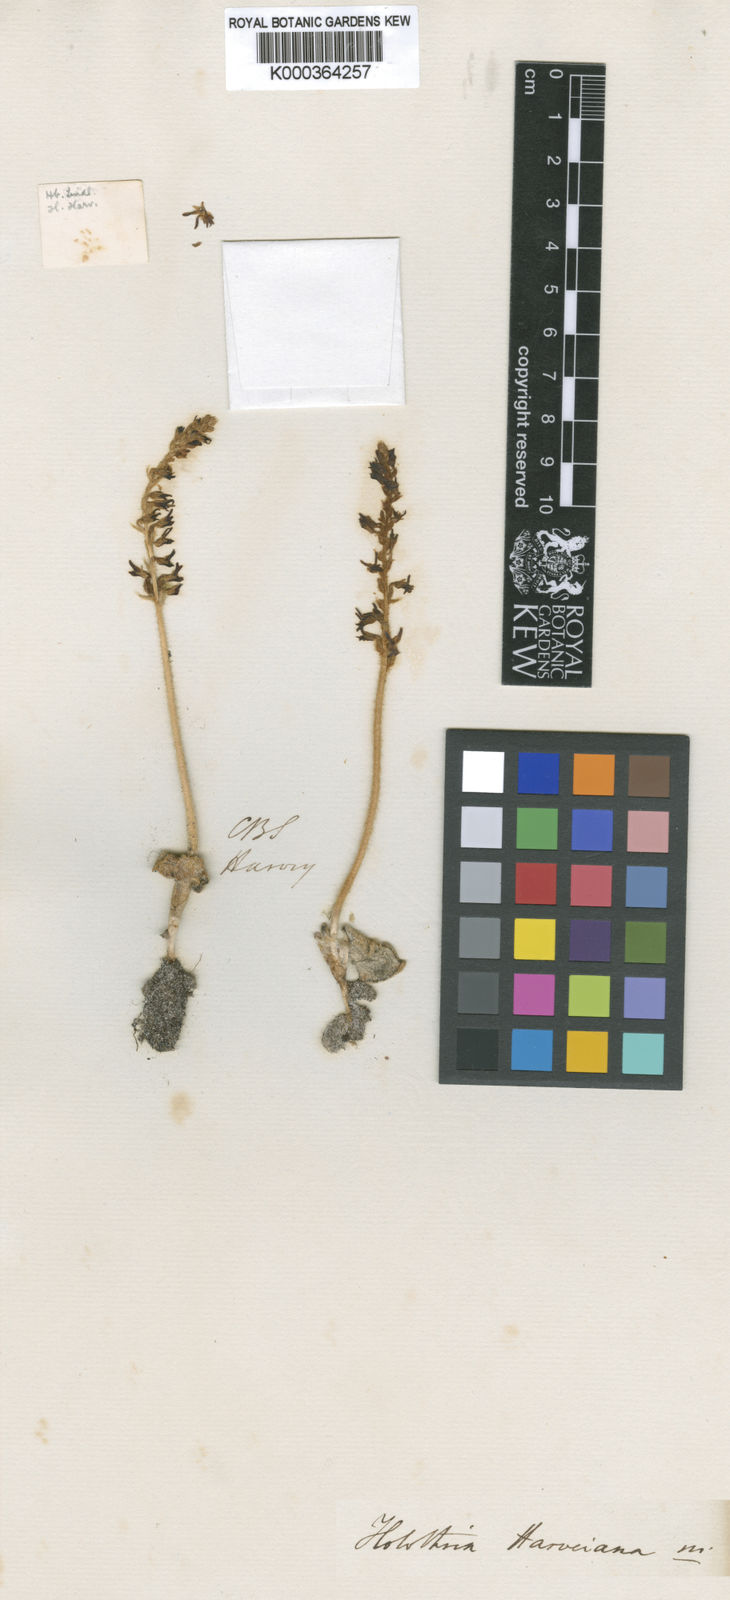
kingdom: Plantae
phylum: Tracheophyta
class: Liliopsida
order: Asparagales
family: Orchidaceae
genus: Holothrix
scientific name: Holothrix cernua
